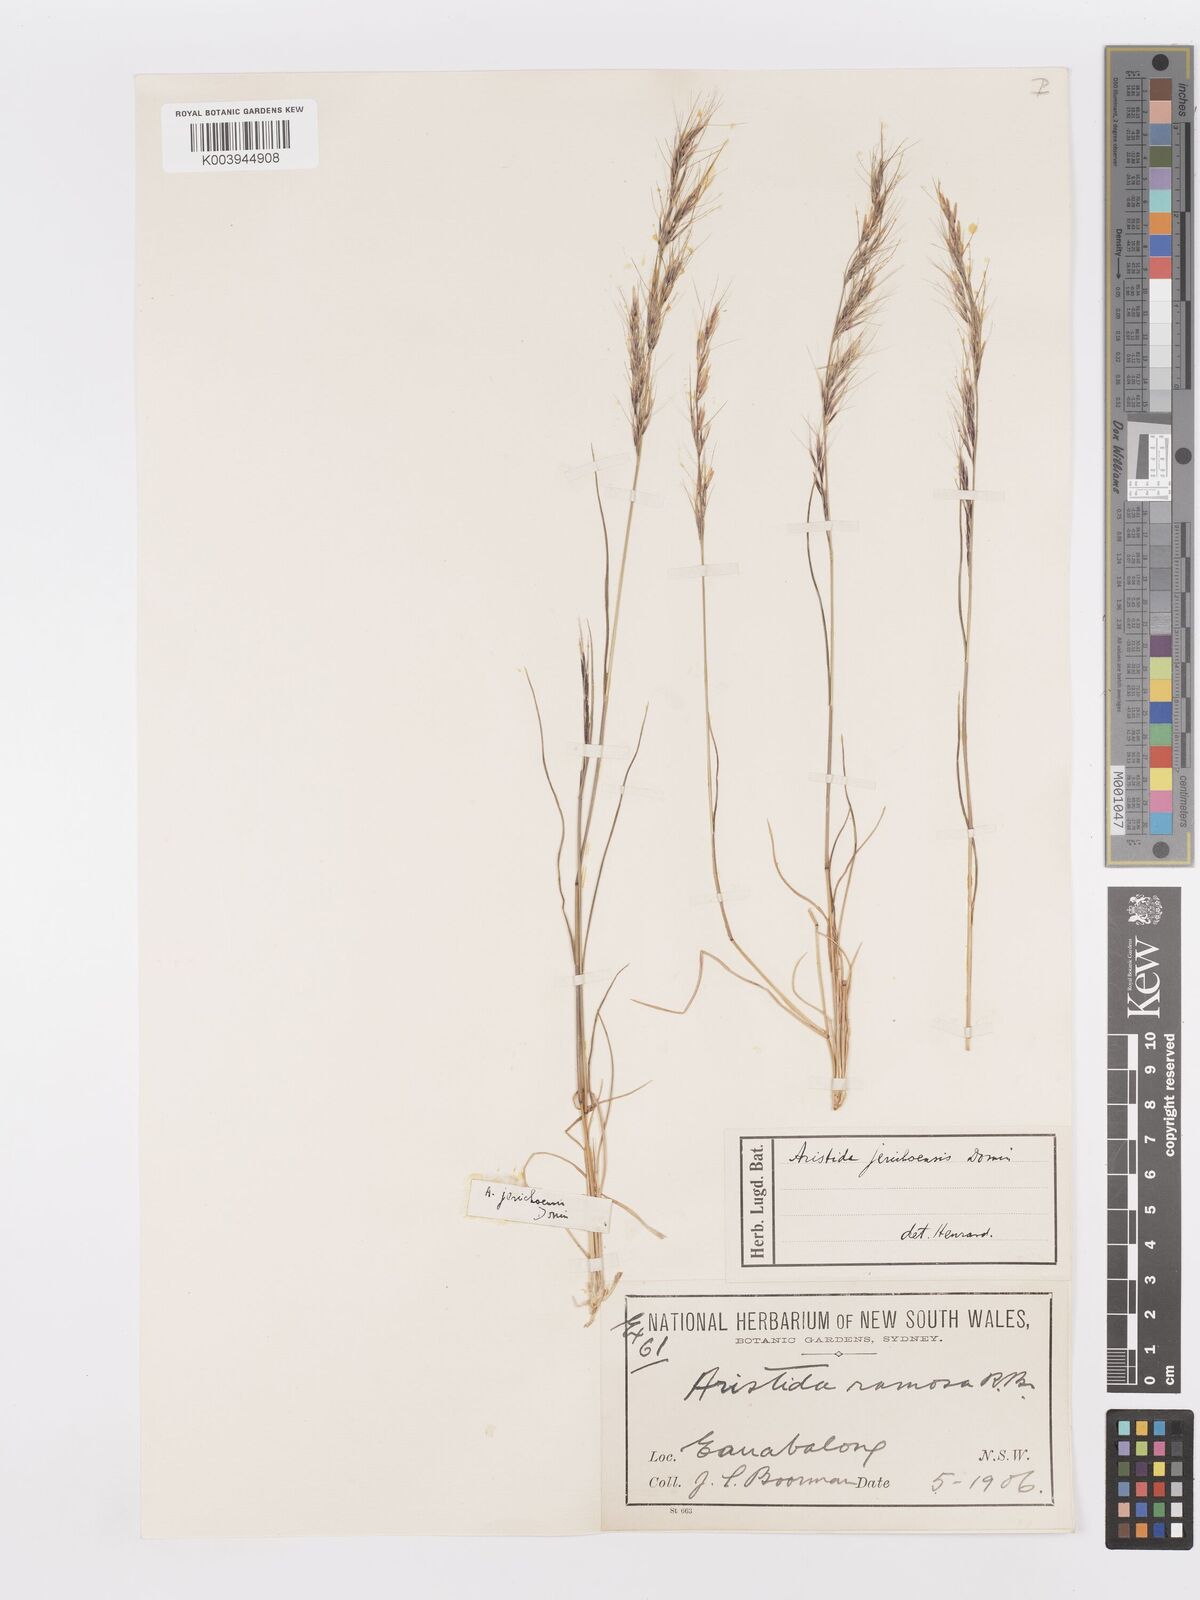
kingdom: Plantae
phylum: Tracheophyta
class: Liliopsida
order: Poales
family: Poaceae
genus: Aristida
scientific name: Aristida jerichoensis
